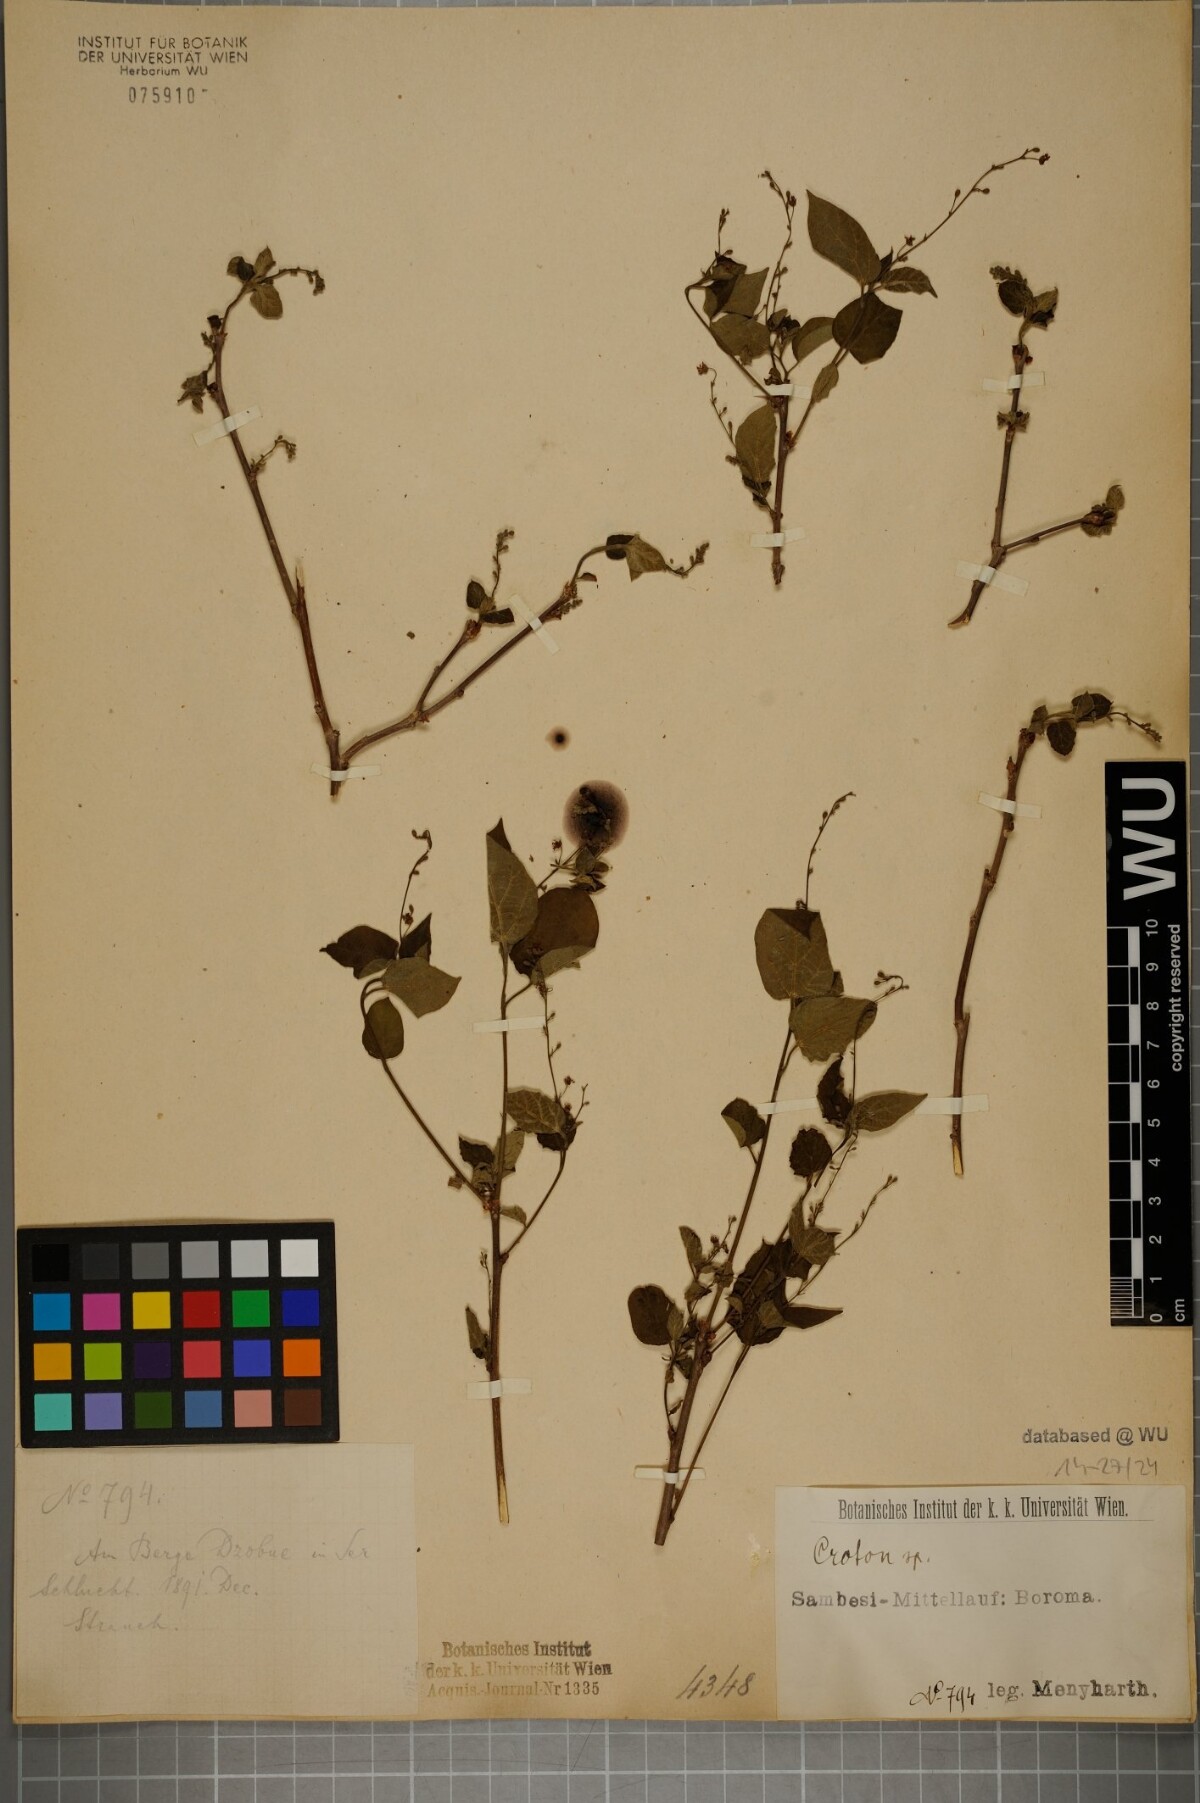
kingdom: Plantae
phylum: Tracheophyta
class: Magnoliopsida
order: Malpighiales
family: Euphorbiaceae
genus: Croton
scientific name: Croton
